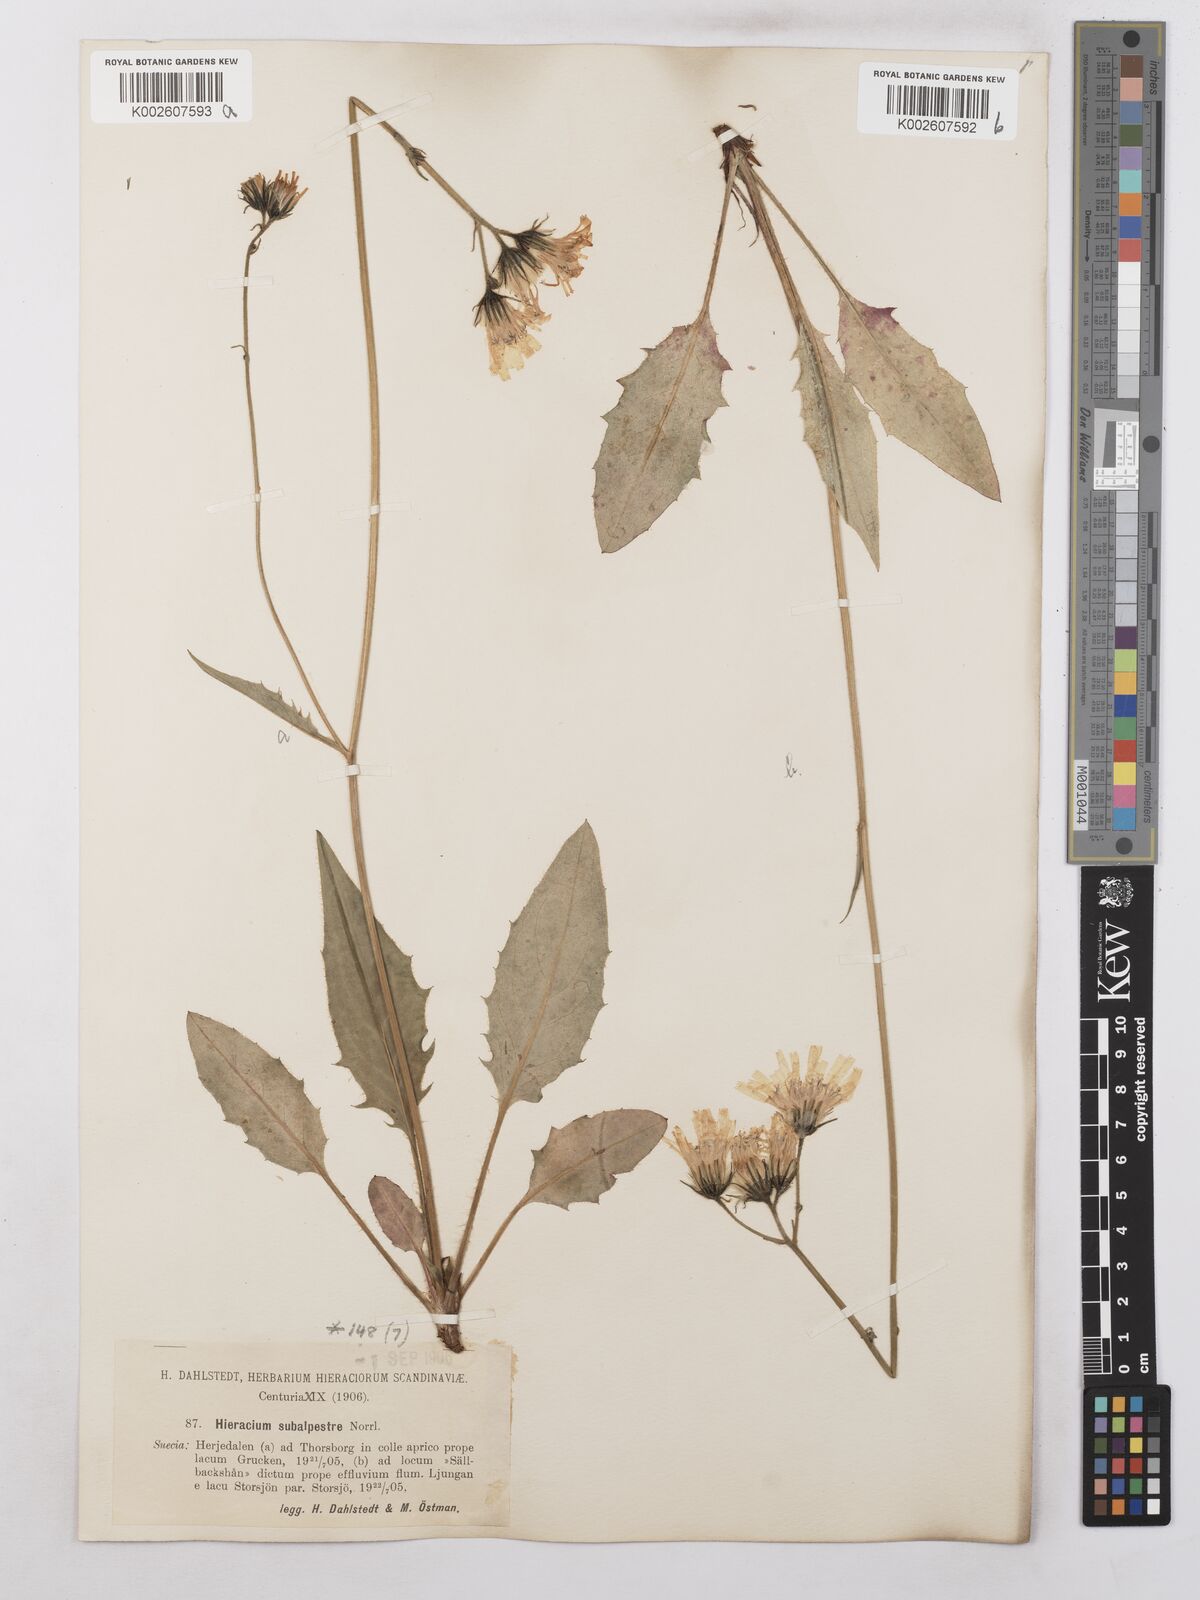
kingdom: Plantae
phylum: Tracheophyta
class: Magnoliopsida
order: Asterales
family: Asteraceae
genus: Hieracium
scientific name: Hieracium subramosum
